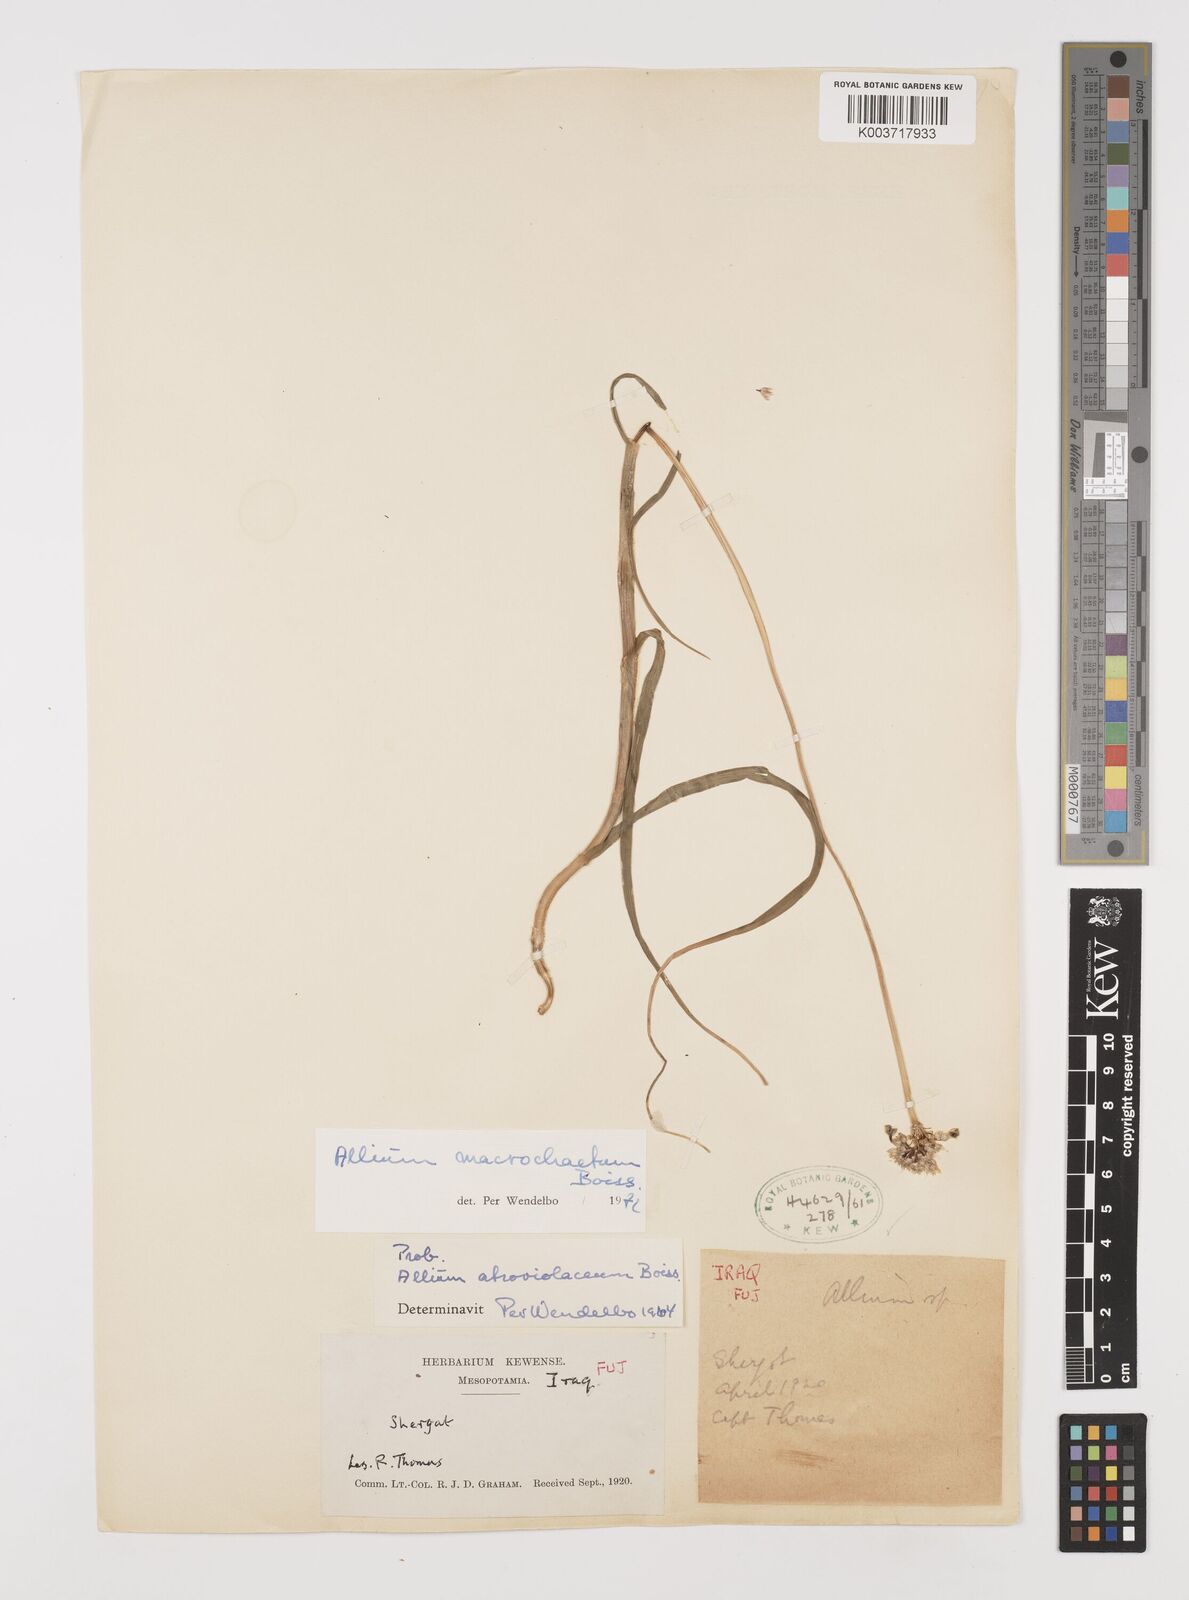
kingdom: Plantae
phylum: Tracheophyta
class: Liliopsida
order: Asparagales
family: Amaryllidaceae
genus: Allium
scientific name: Allium macrochaetum
